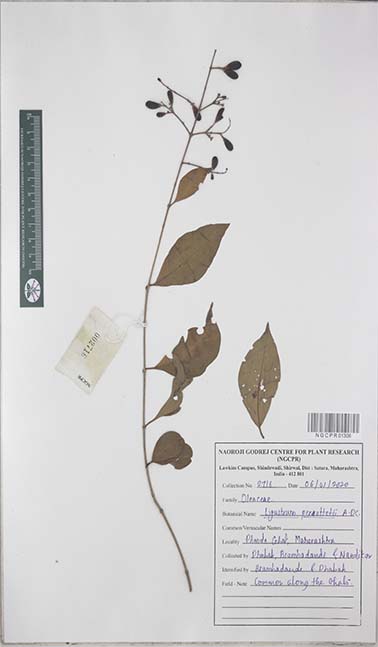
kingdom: Plantae
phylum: Tracheophyta
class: Magnoliopsida
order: Lamiales
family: Oleaceae
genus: Ligustrum
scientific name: Ligustrum robustum
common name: Tree privet
